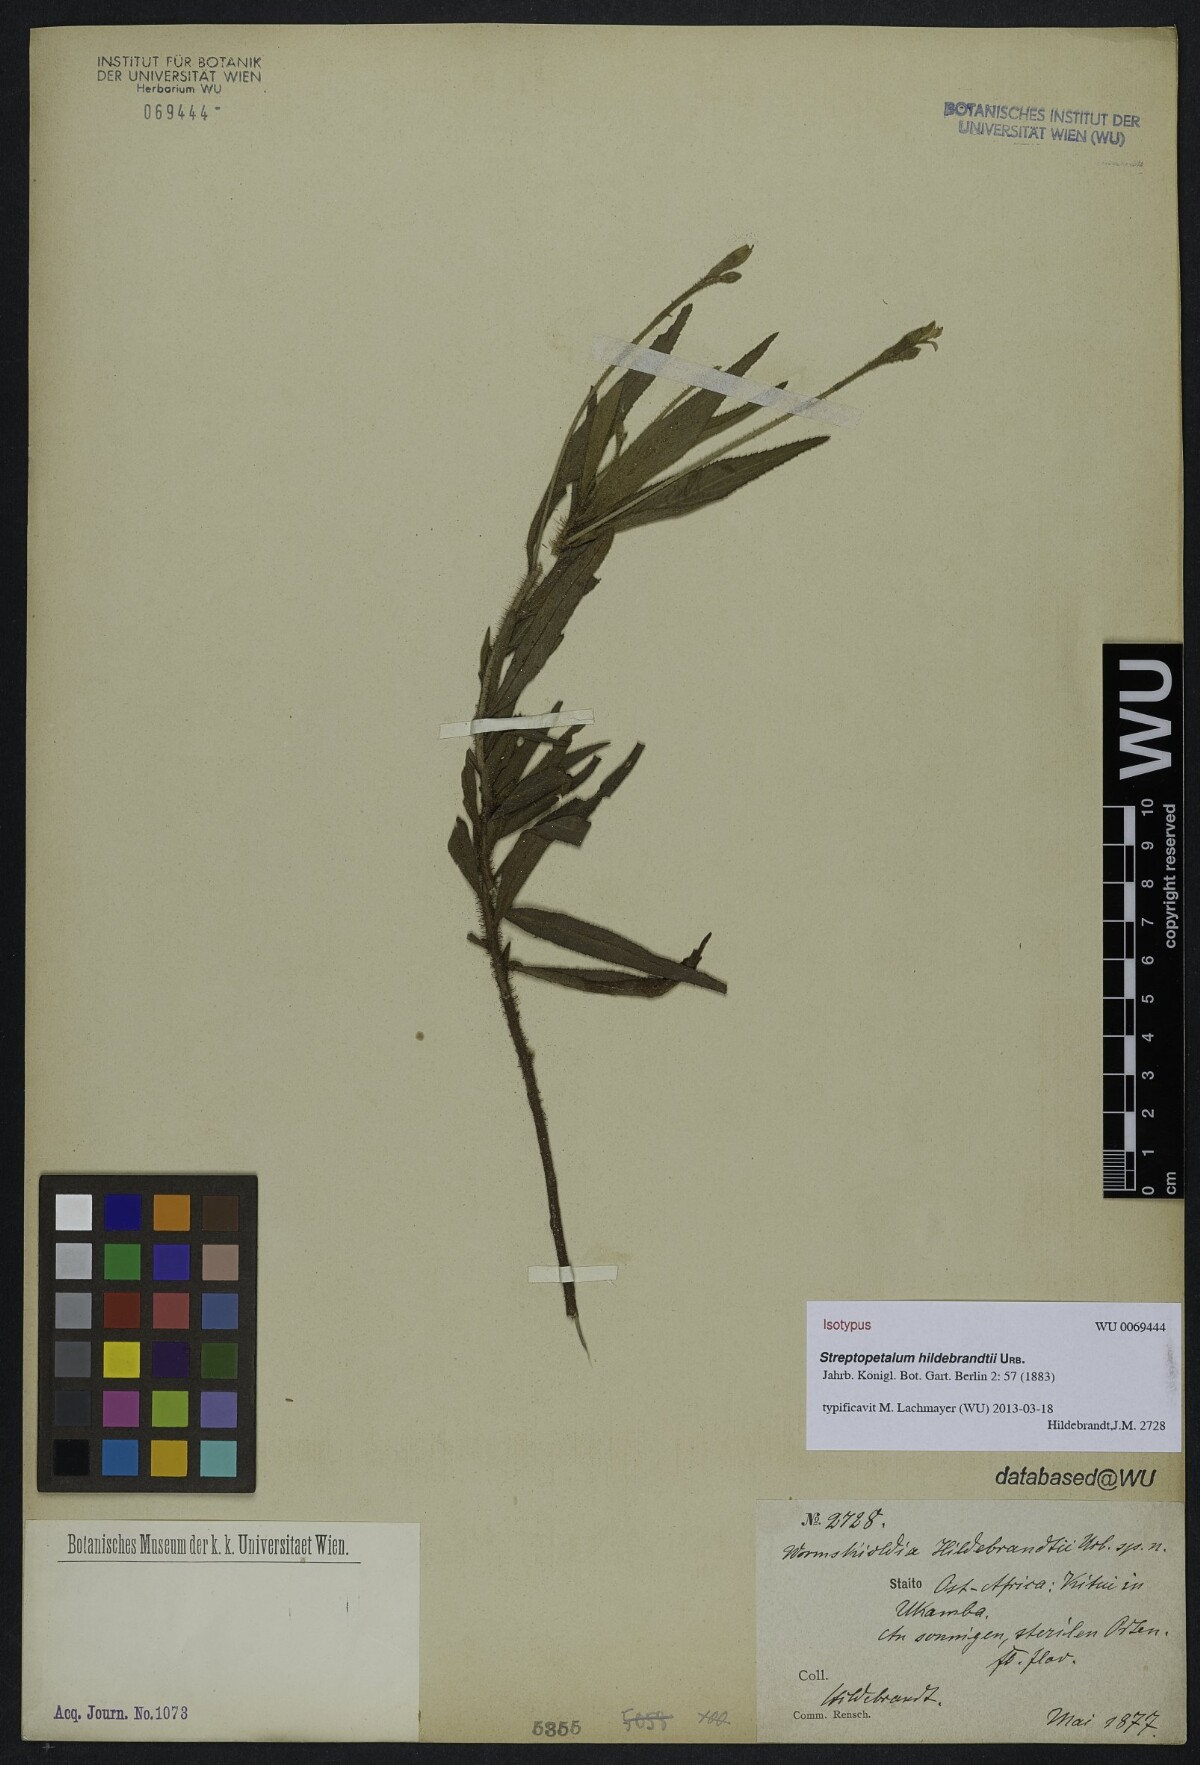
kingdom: Plantae
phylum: Tracheophyta
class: Magnoliopsida
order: Malpighiales
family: Turneraceae
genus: Streptopetalum
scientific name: Streptopetalum hildebrandtii
